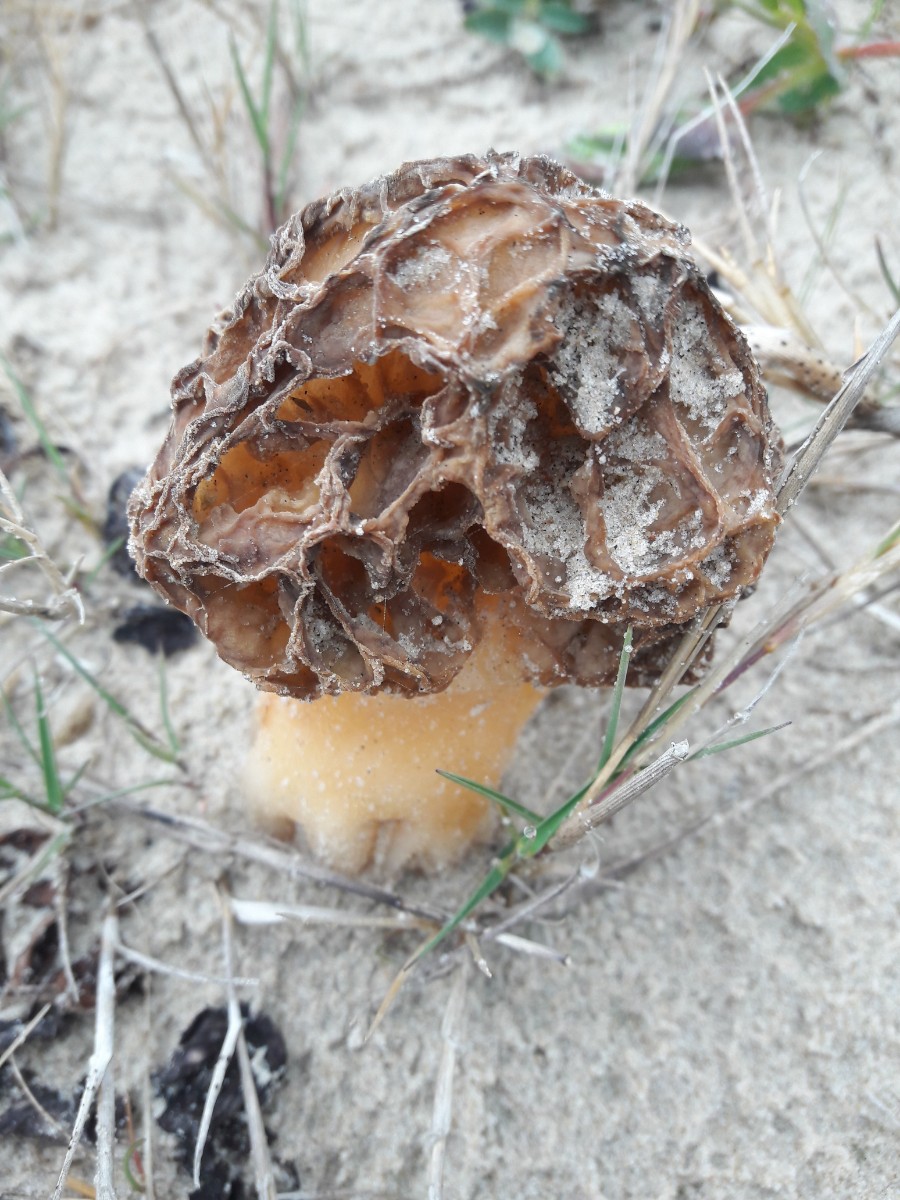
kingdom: Fungi
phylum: Ascomycota
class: Pezizomycetes
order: Pezizales
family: Morchellaceae
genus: Morchella
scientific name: Morchella esculenta
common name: almindelig morkel
